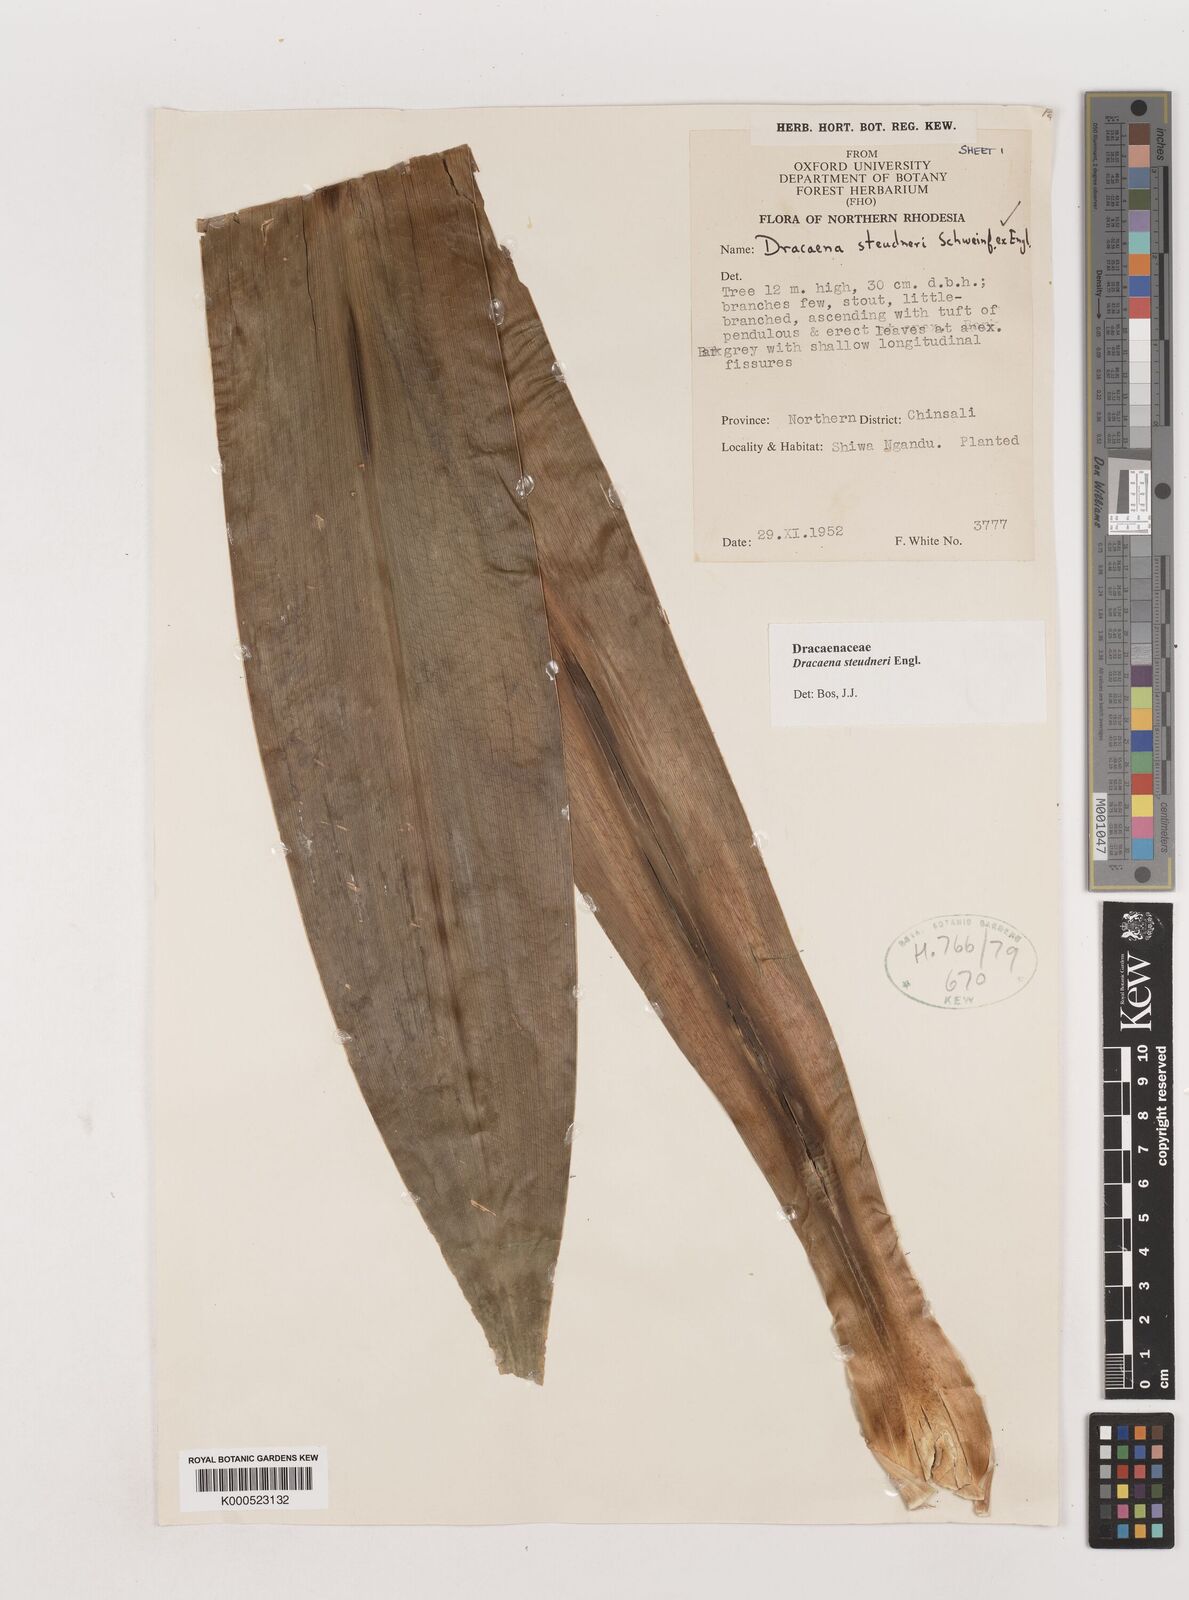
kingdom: Plantae
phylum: Tracheophyta
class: Liliopsida
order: Asparagales
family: Asparagaceae
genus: Dracaena
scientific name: Dracaena steudneri
